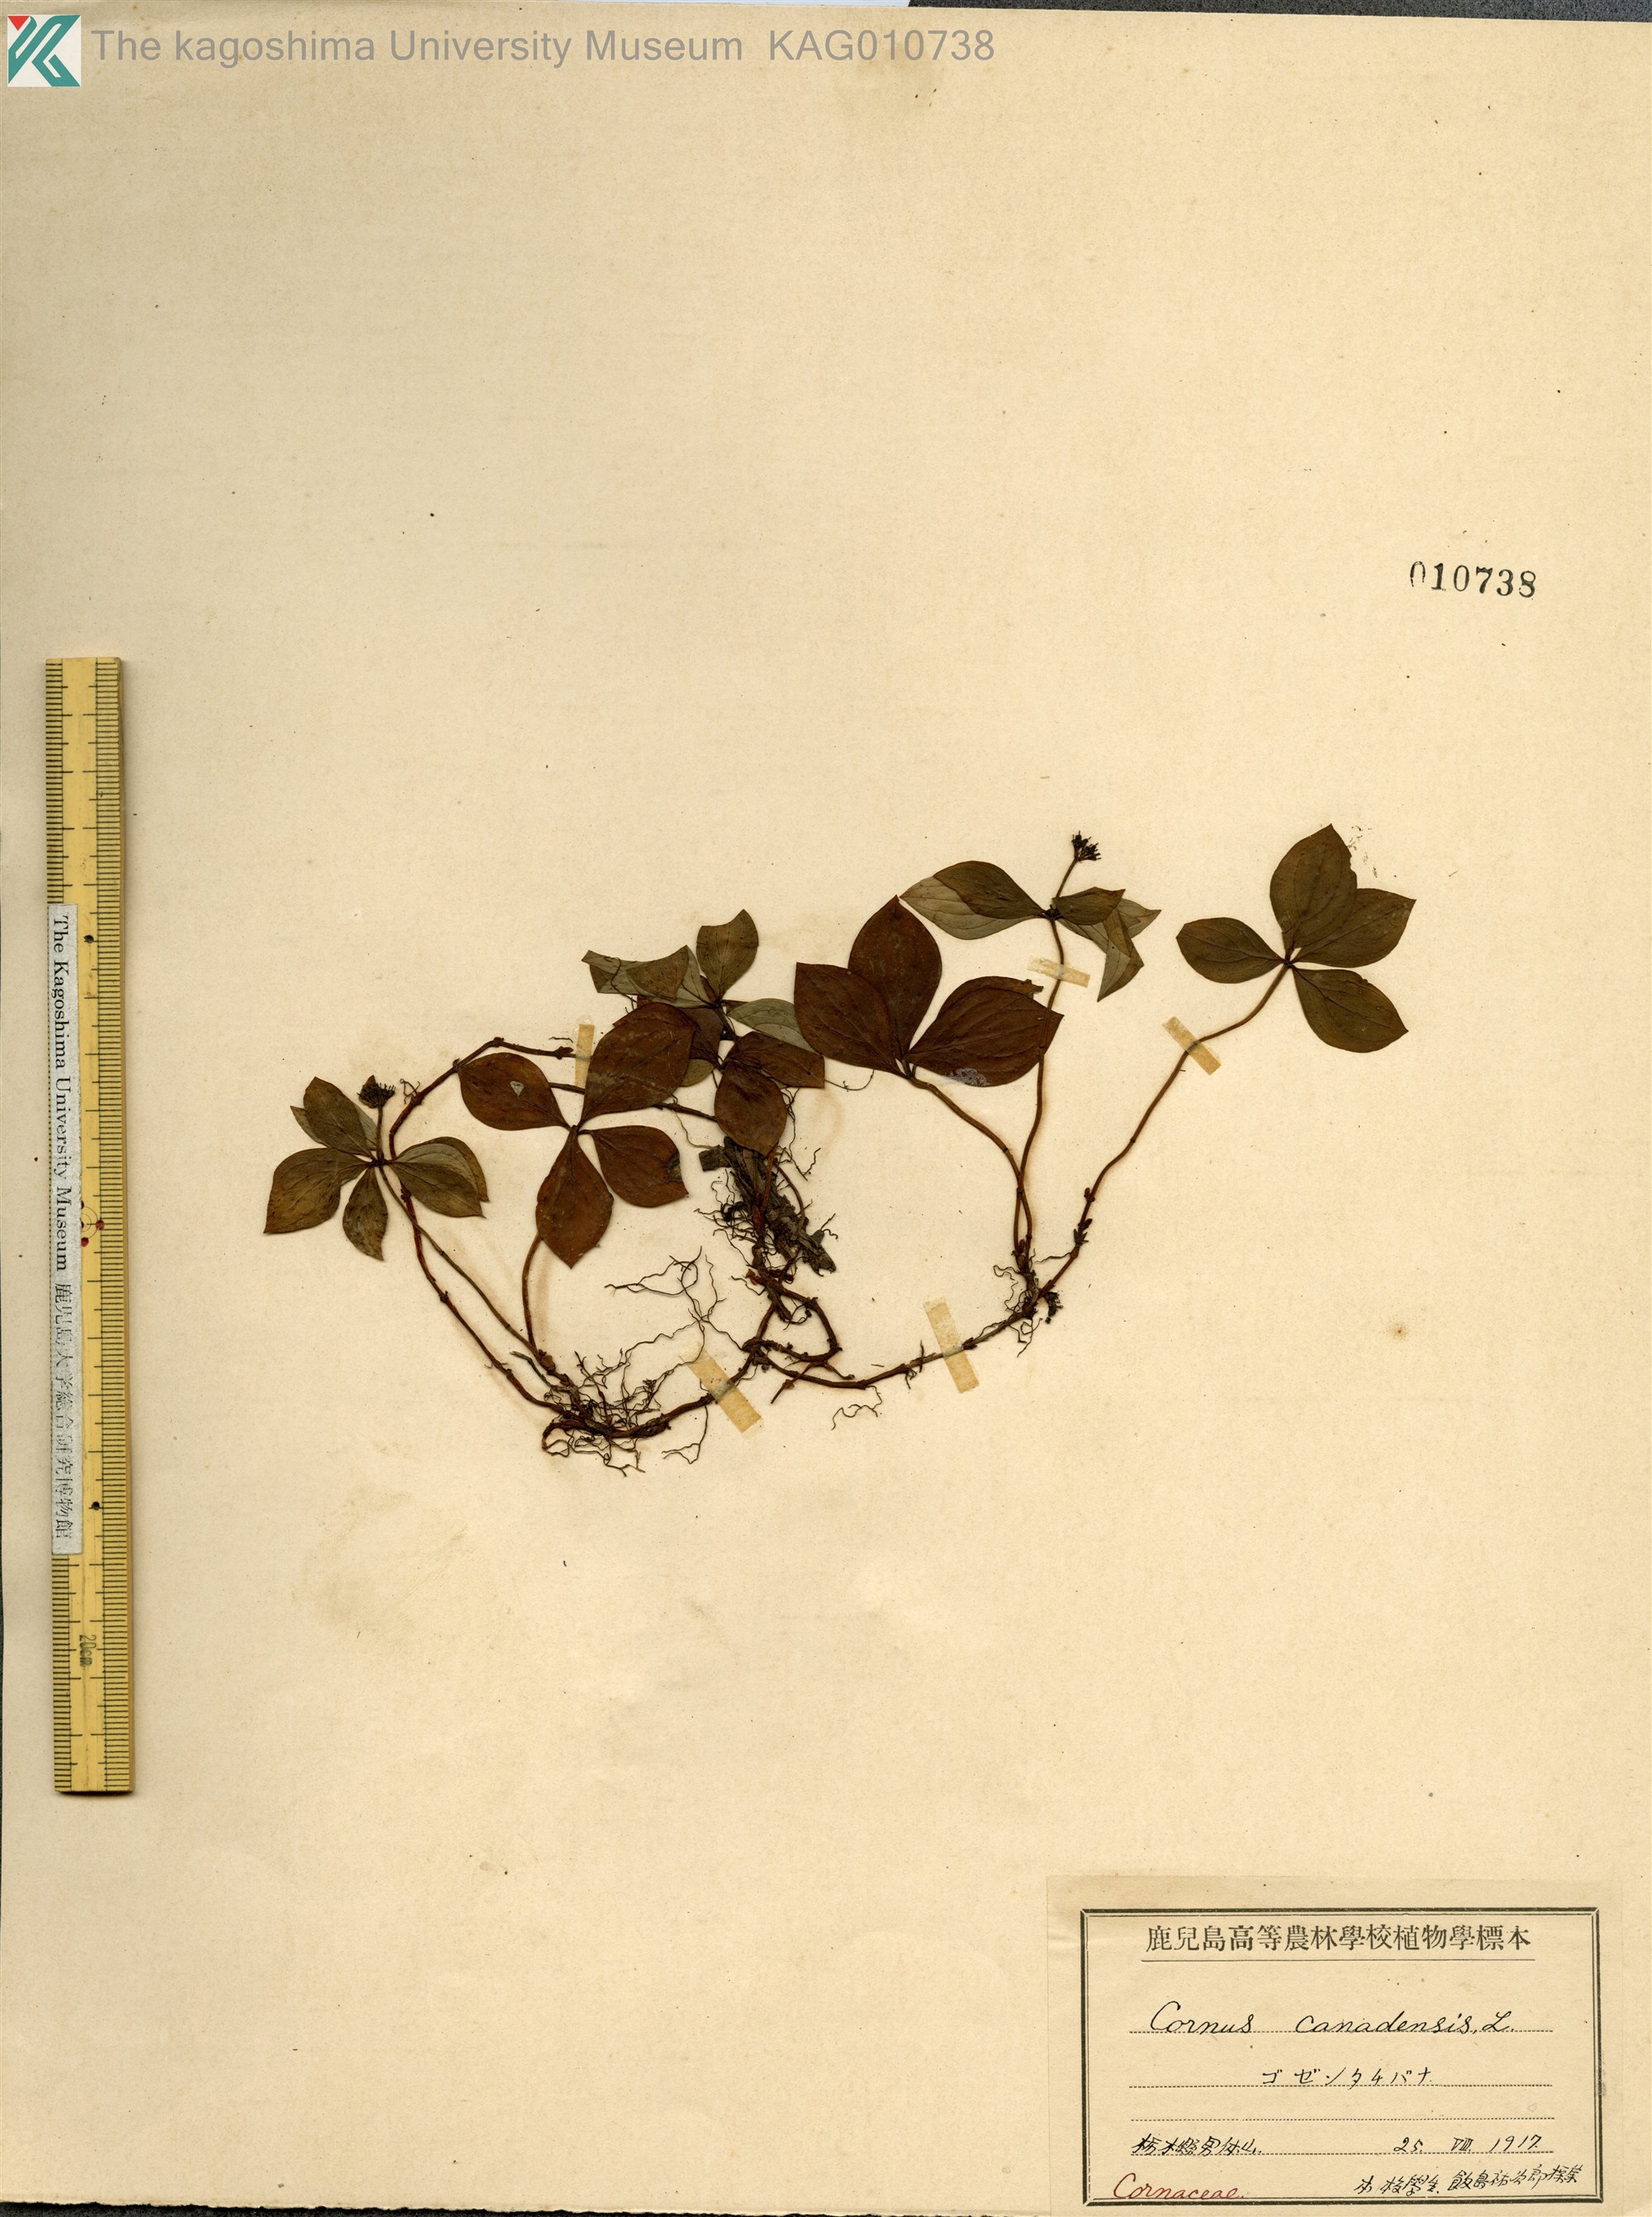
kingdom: Plantae
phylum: Tracheophyta
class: Magnoliopsida
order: Cornales
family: Cornaceae
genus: Cornus
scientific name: Cornus canadensis
